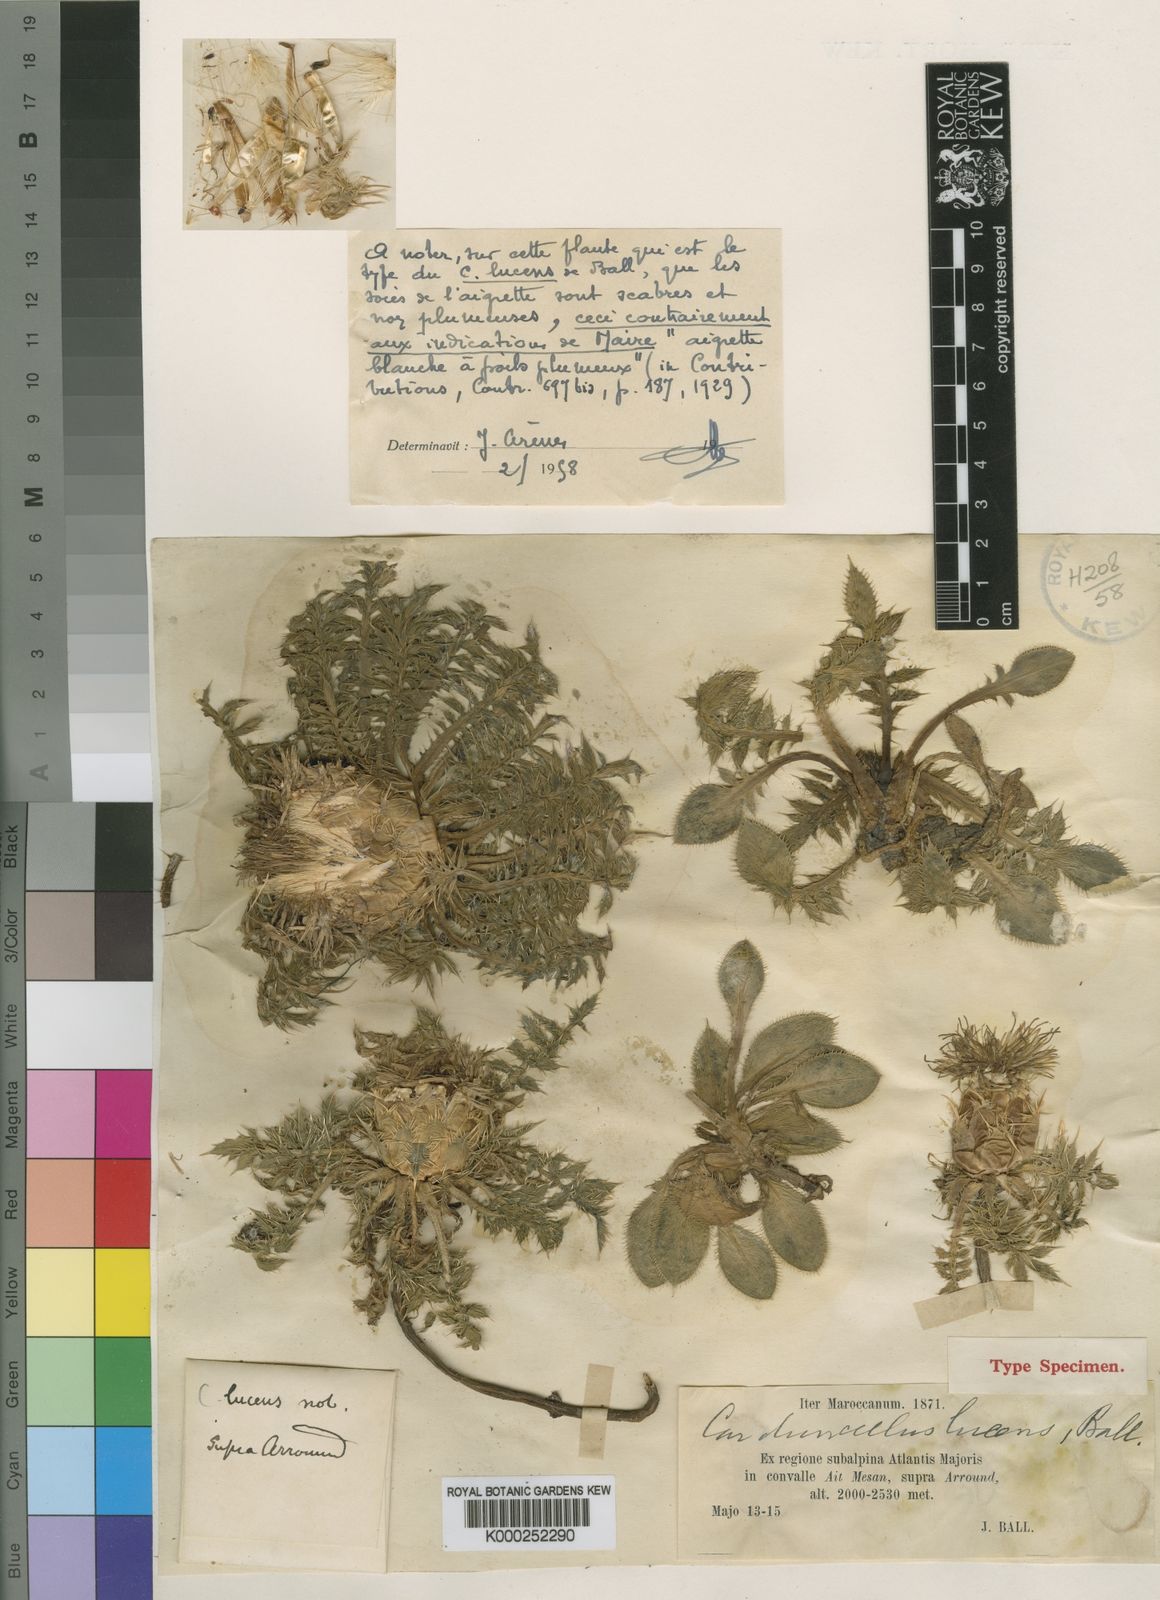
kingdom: Plantae
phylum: Tracheophyta
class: Magnoliopsida
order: Asterales
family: Asteraceae
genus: Carduncellus
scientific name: Carduncellus lucens
